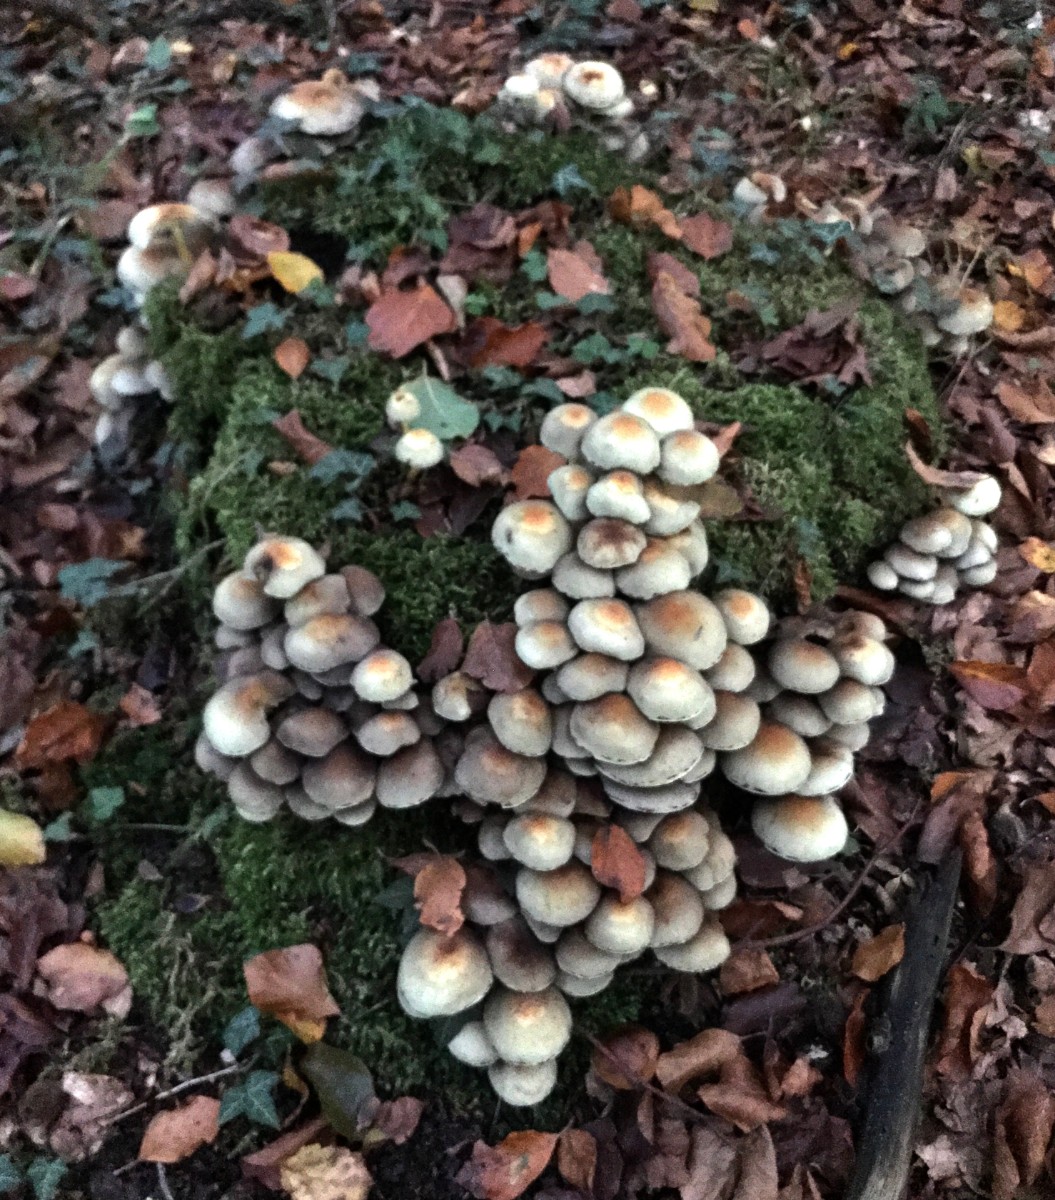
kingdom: Fungi
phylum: Basidiomycota
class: Agaricomycetes
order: Agaricales
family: Strophariaceae
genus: Hypholoma
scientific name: Hypholoma fasciculare
